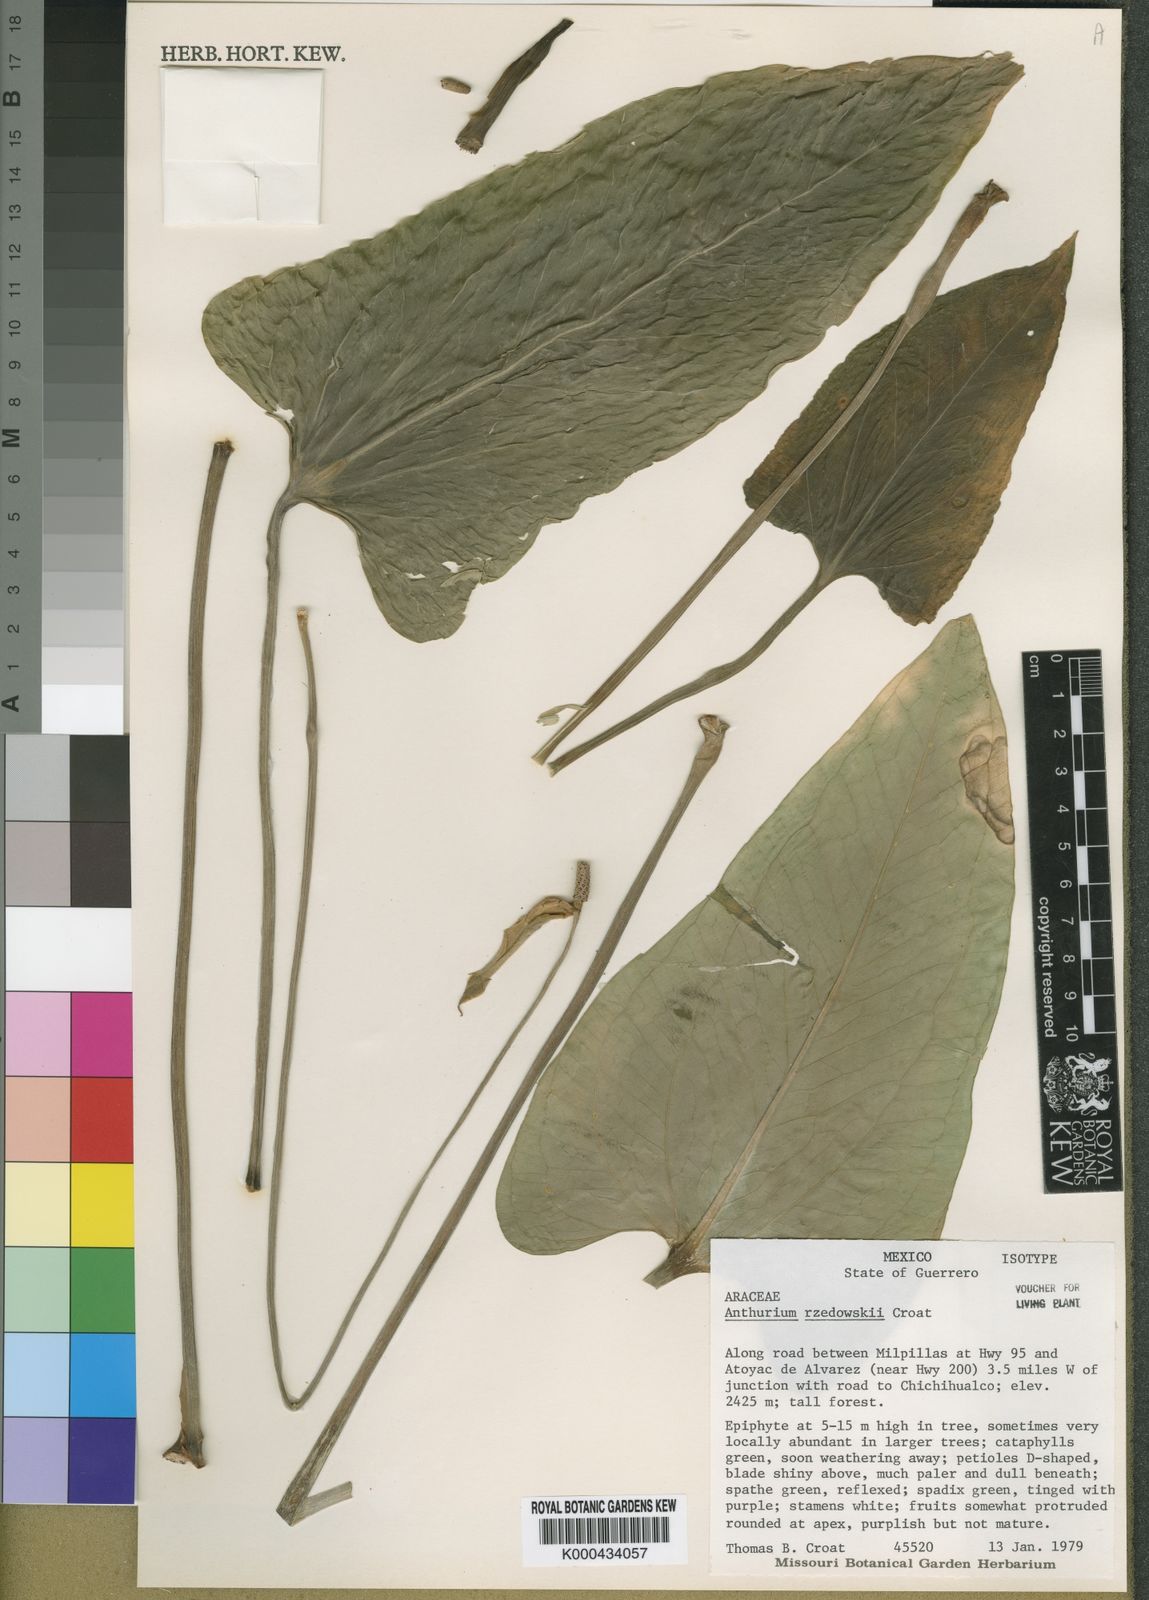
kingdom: Plantae
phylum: Tracheophyta
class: Liliopsida
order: Alismatales
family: Araceae
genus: Anthurium
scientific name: Anthurium rzedowskii
